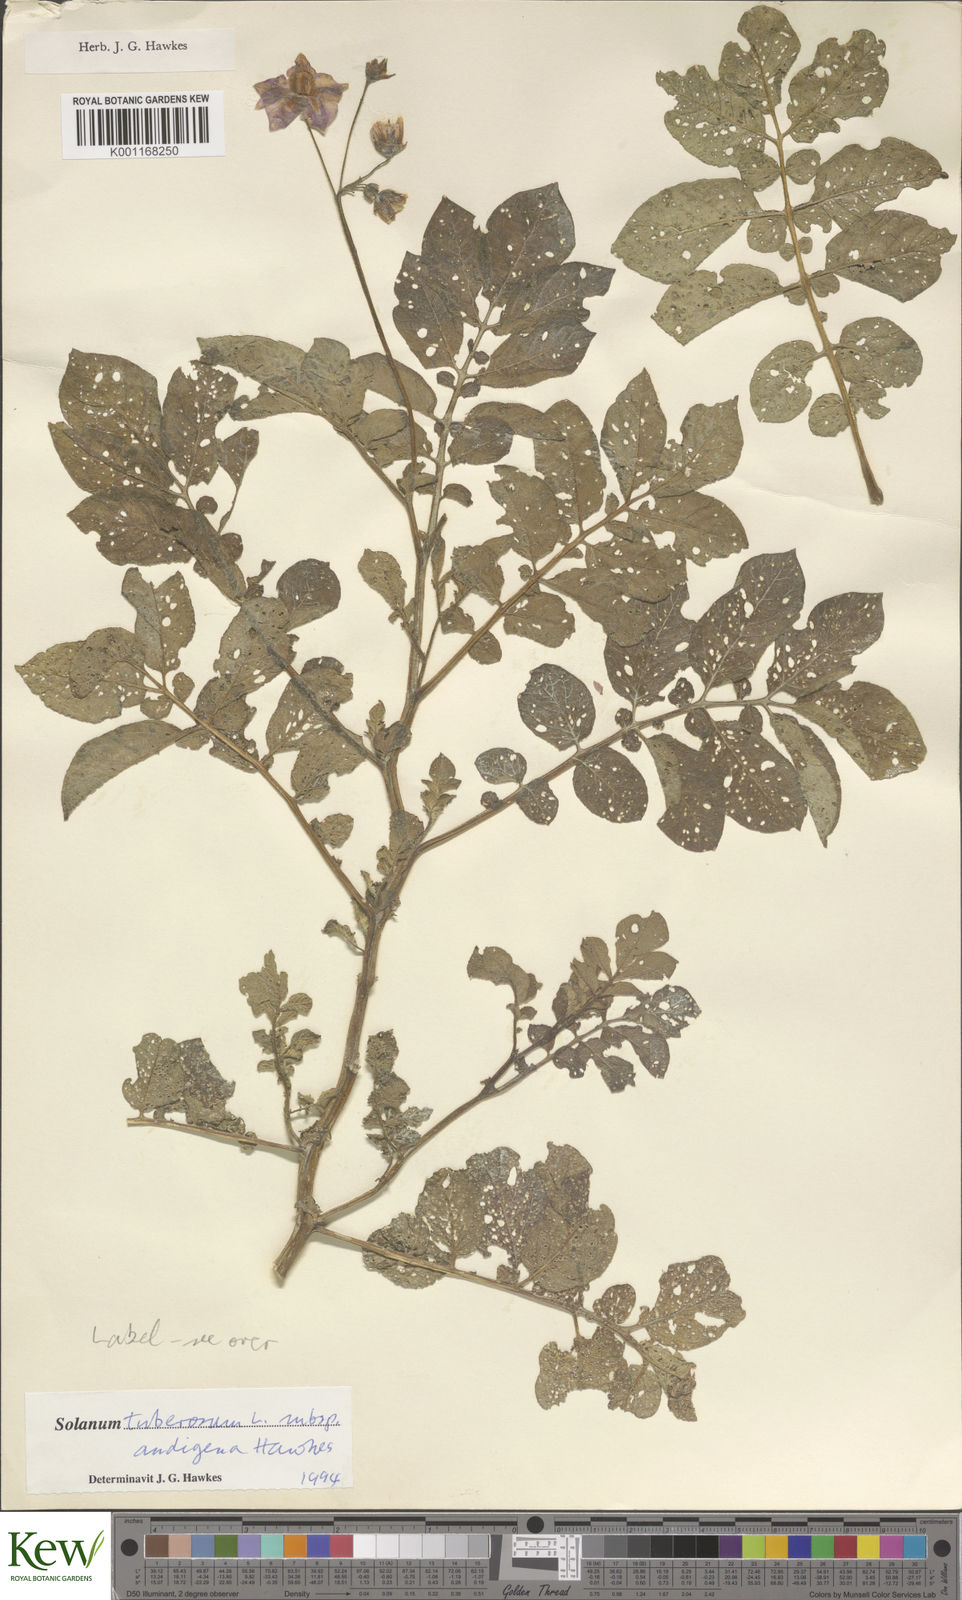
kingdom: Plantae
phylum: Tracheophyta
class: Magnoliopsida
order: Solanales
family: Solanaceae
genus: Solanum
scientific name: Solanum tuberosum
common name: Potato
